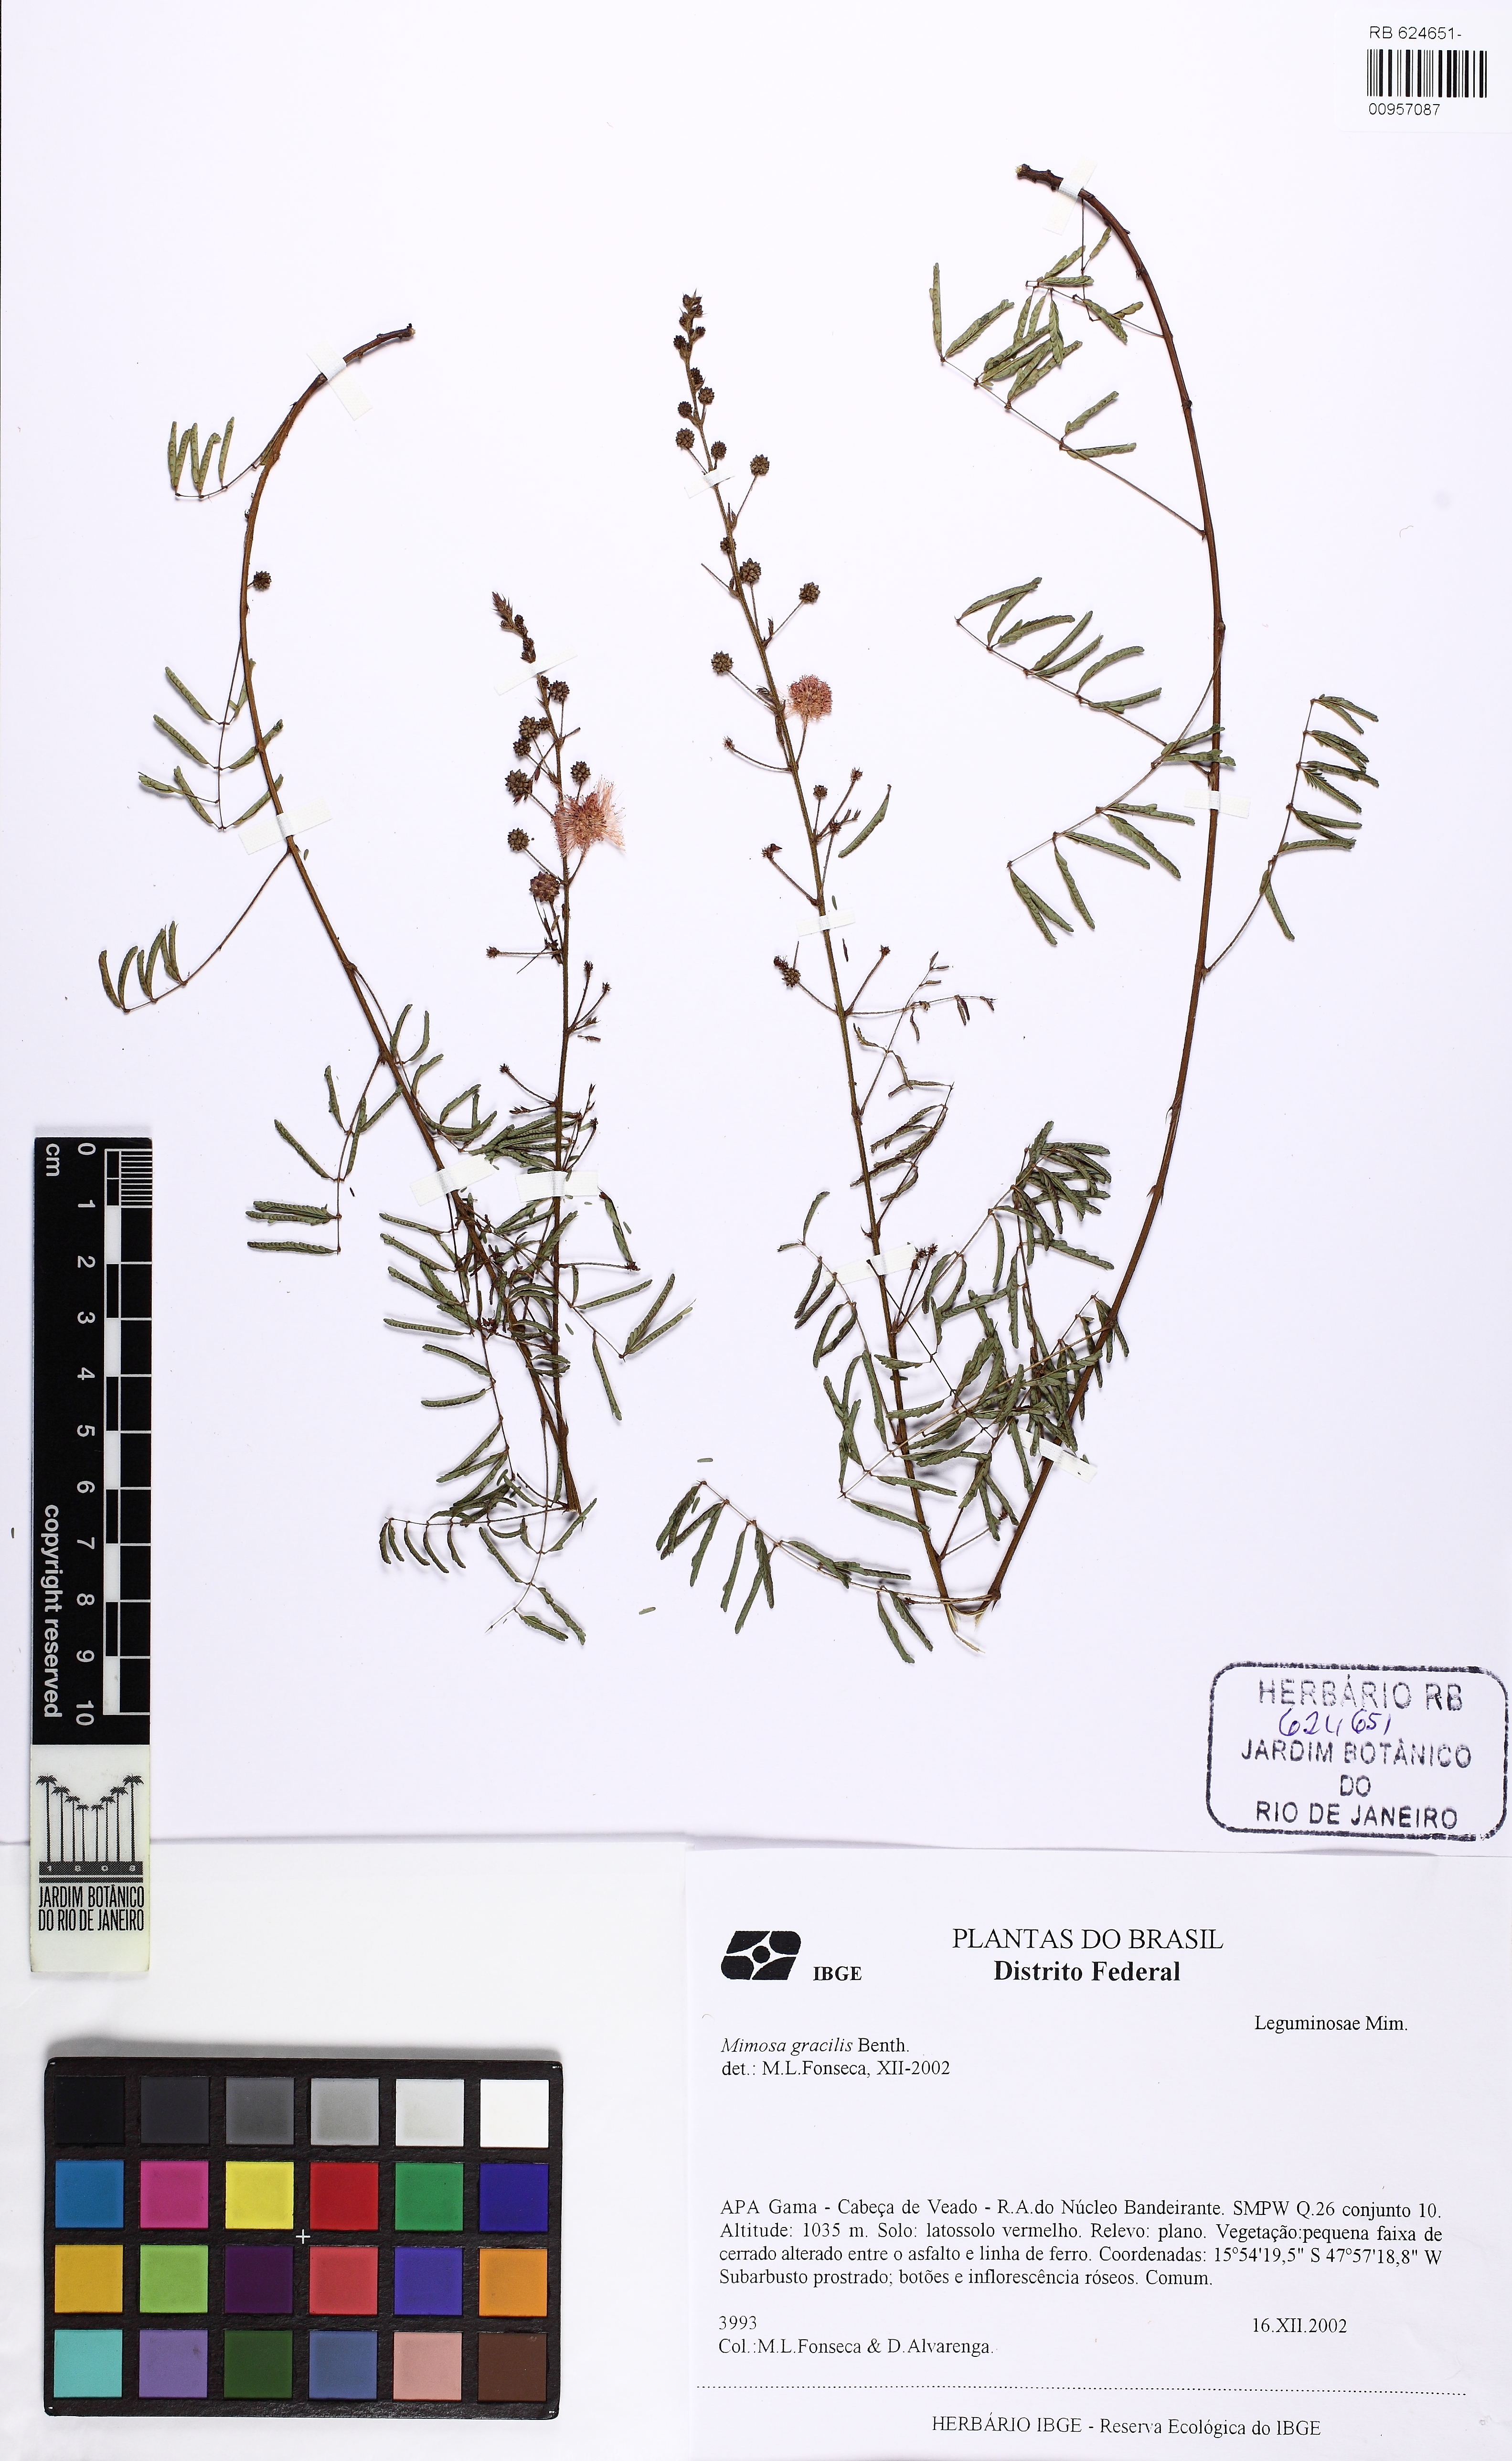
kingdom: Plantae
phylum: Tracheophyta
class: Magnoliopsida
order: Fabales
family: Fabaceae
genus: Mimosa
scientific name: Mimosa somnians
